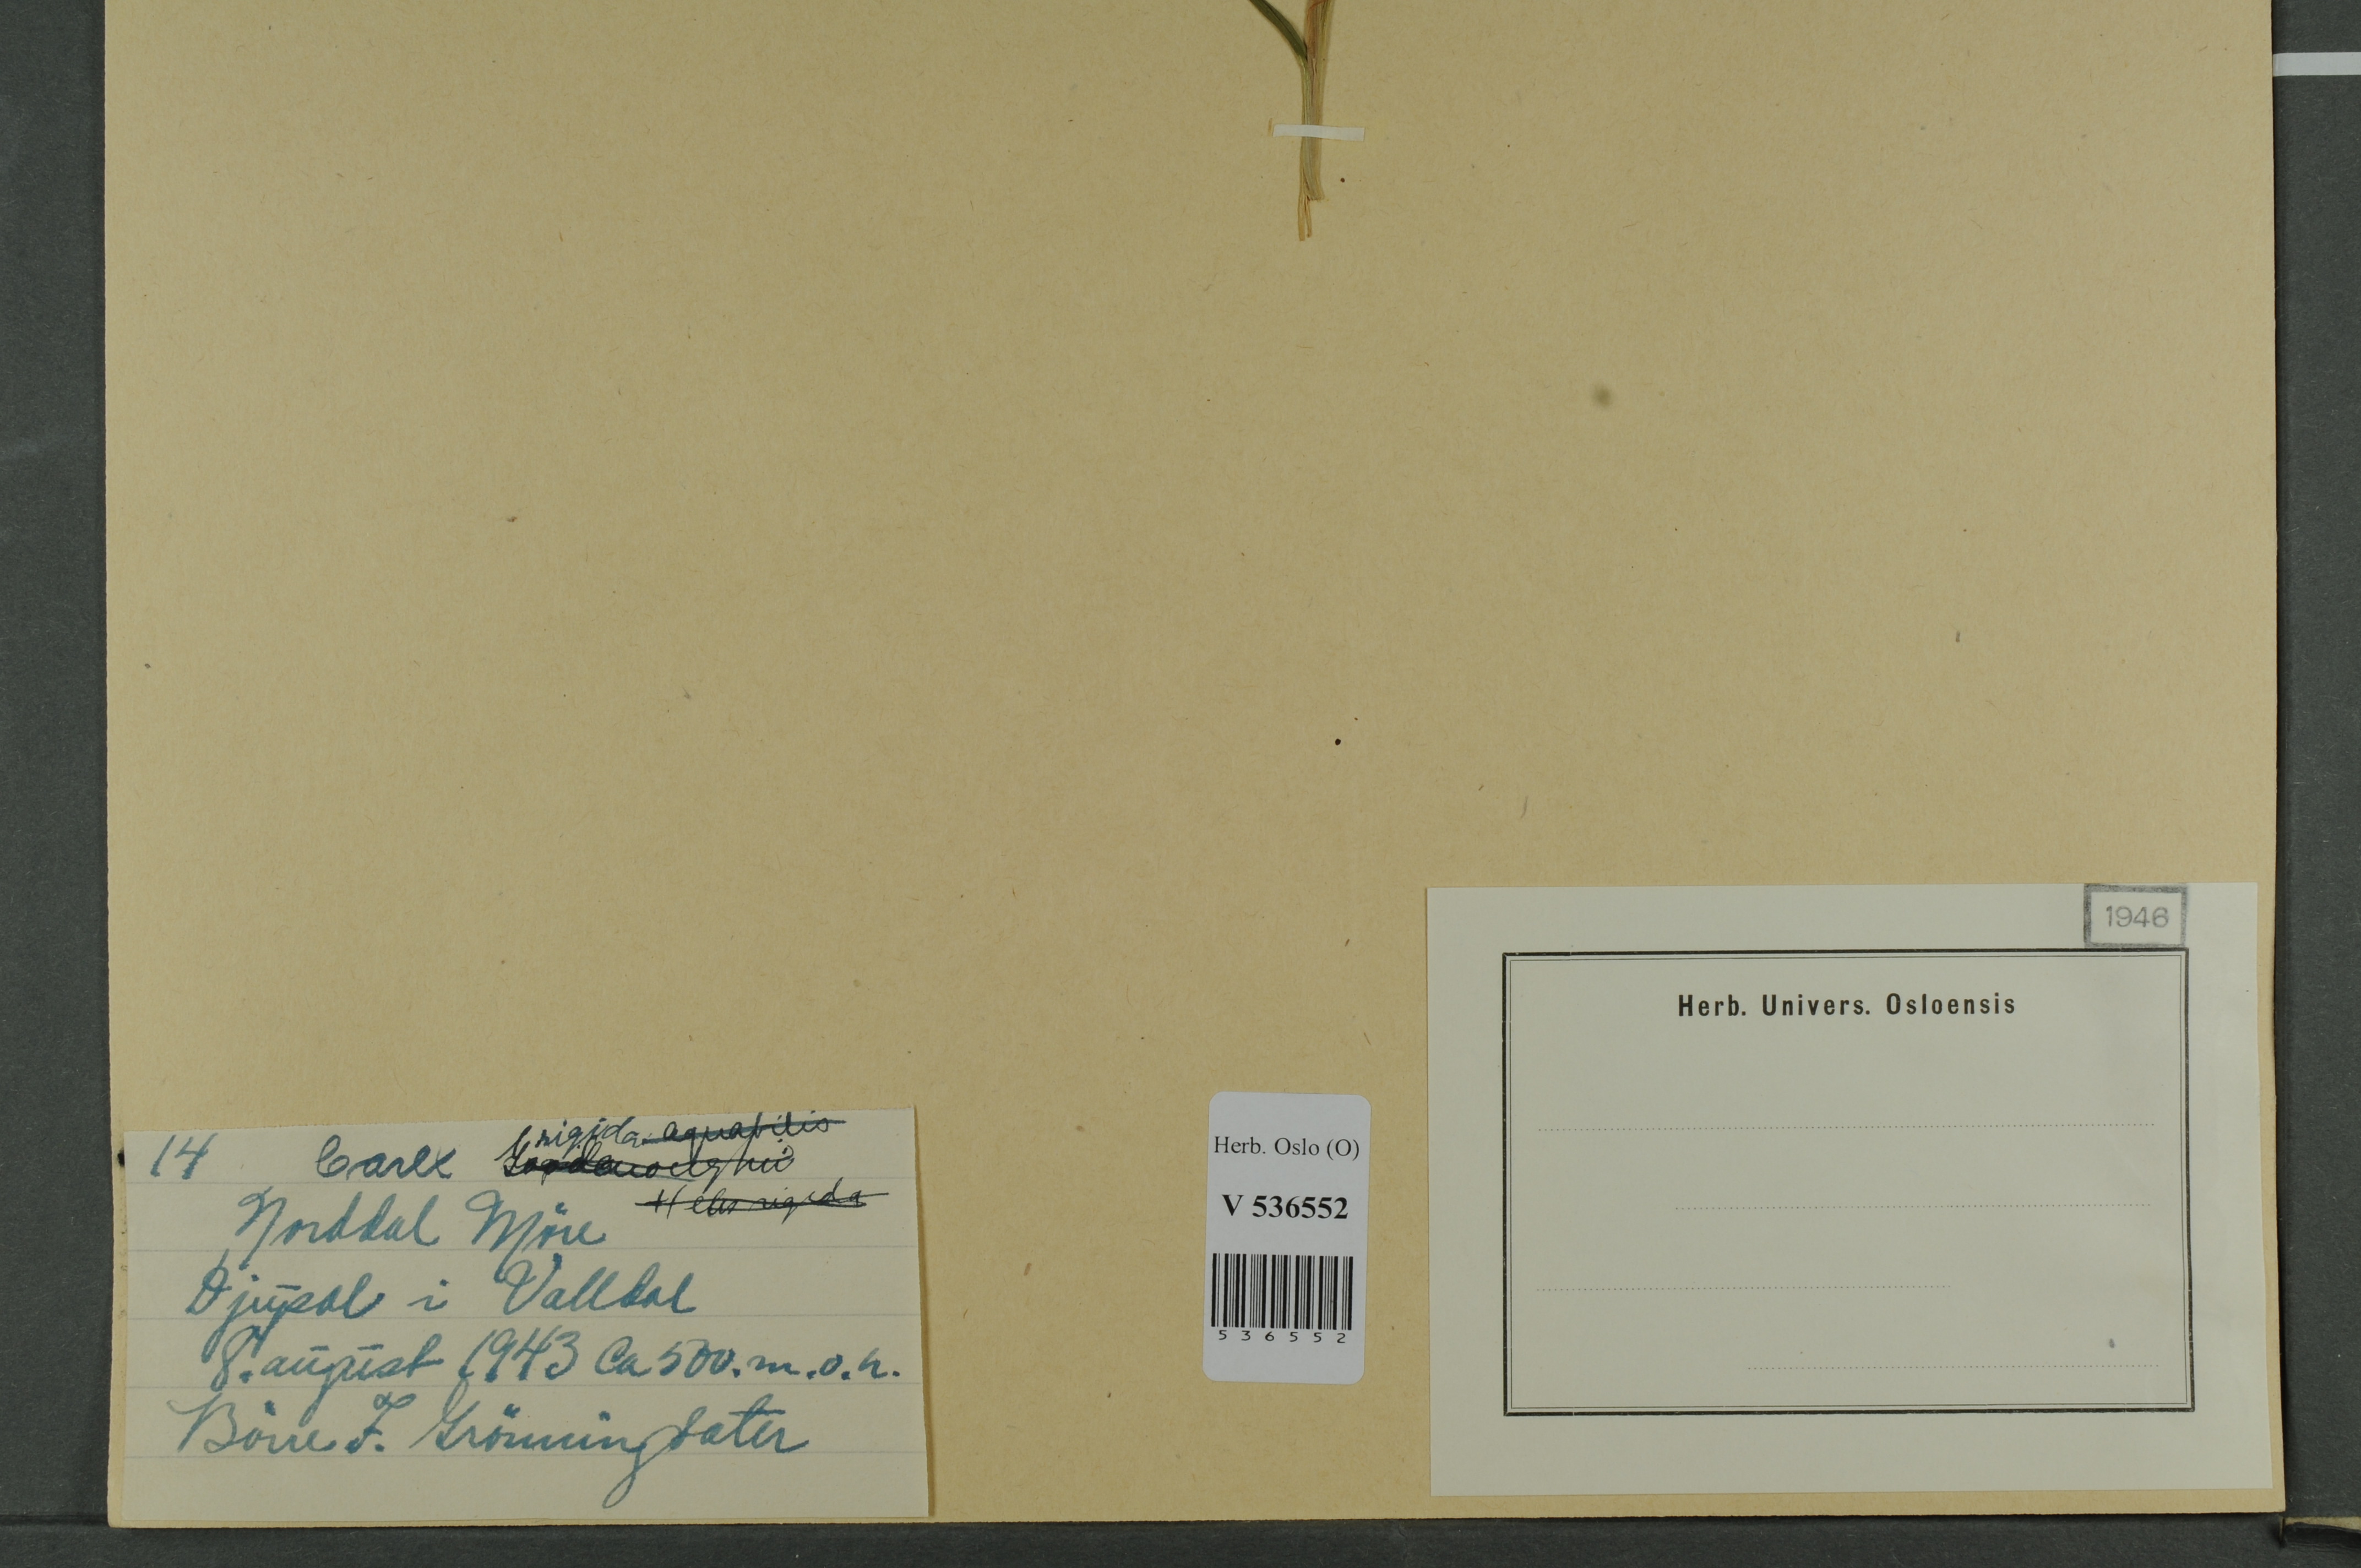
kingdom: Plantae
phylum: Tracheophyta
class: Liliopsida
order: Poales
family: Cyperaceae
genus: Carex
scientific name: Carex dacica
